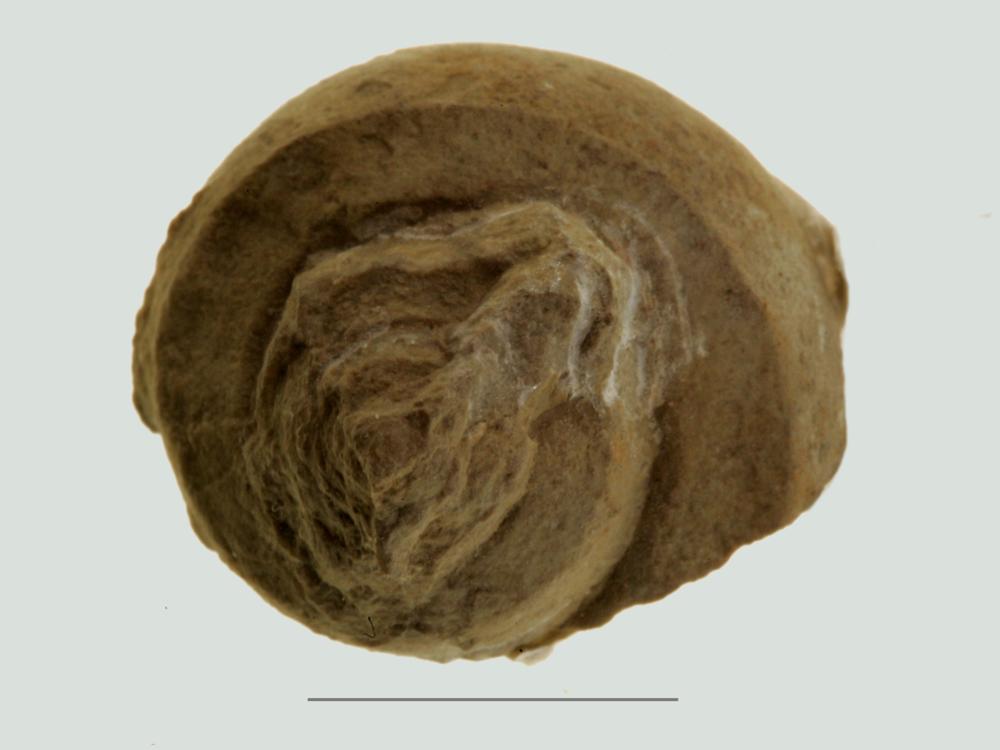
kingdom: Animalia
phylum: Mollusca
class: Gastropoda
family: Euomphalidae
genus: Euomphalus
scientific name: Euomphalus
